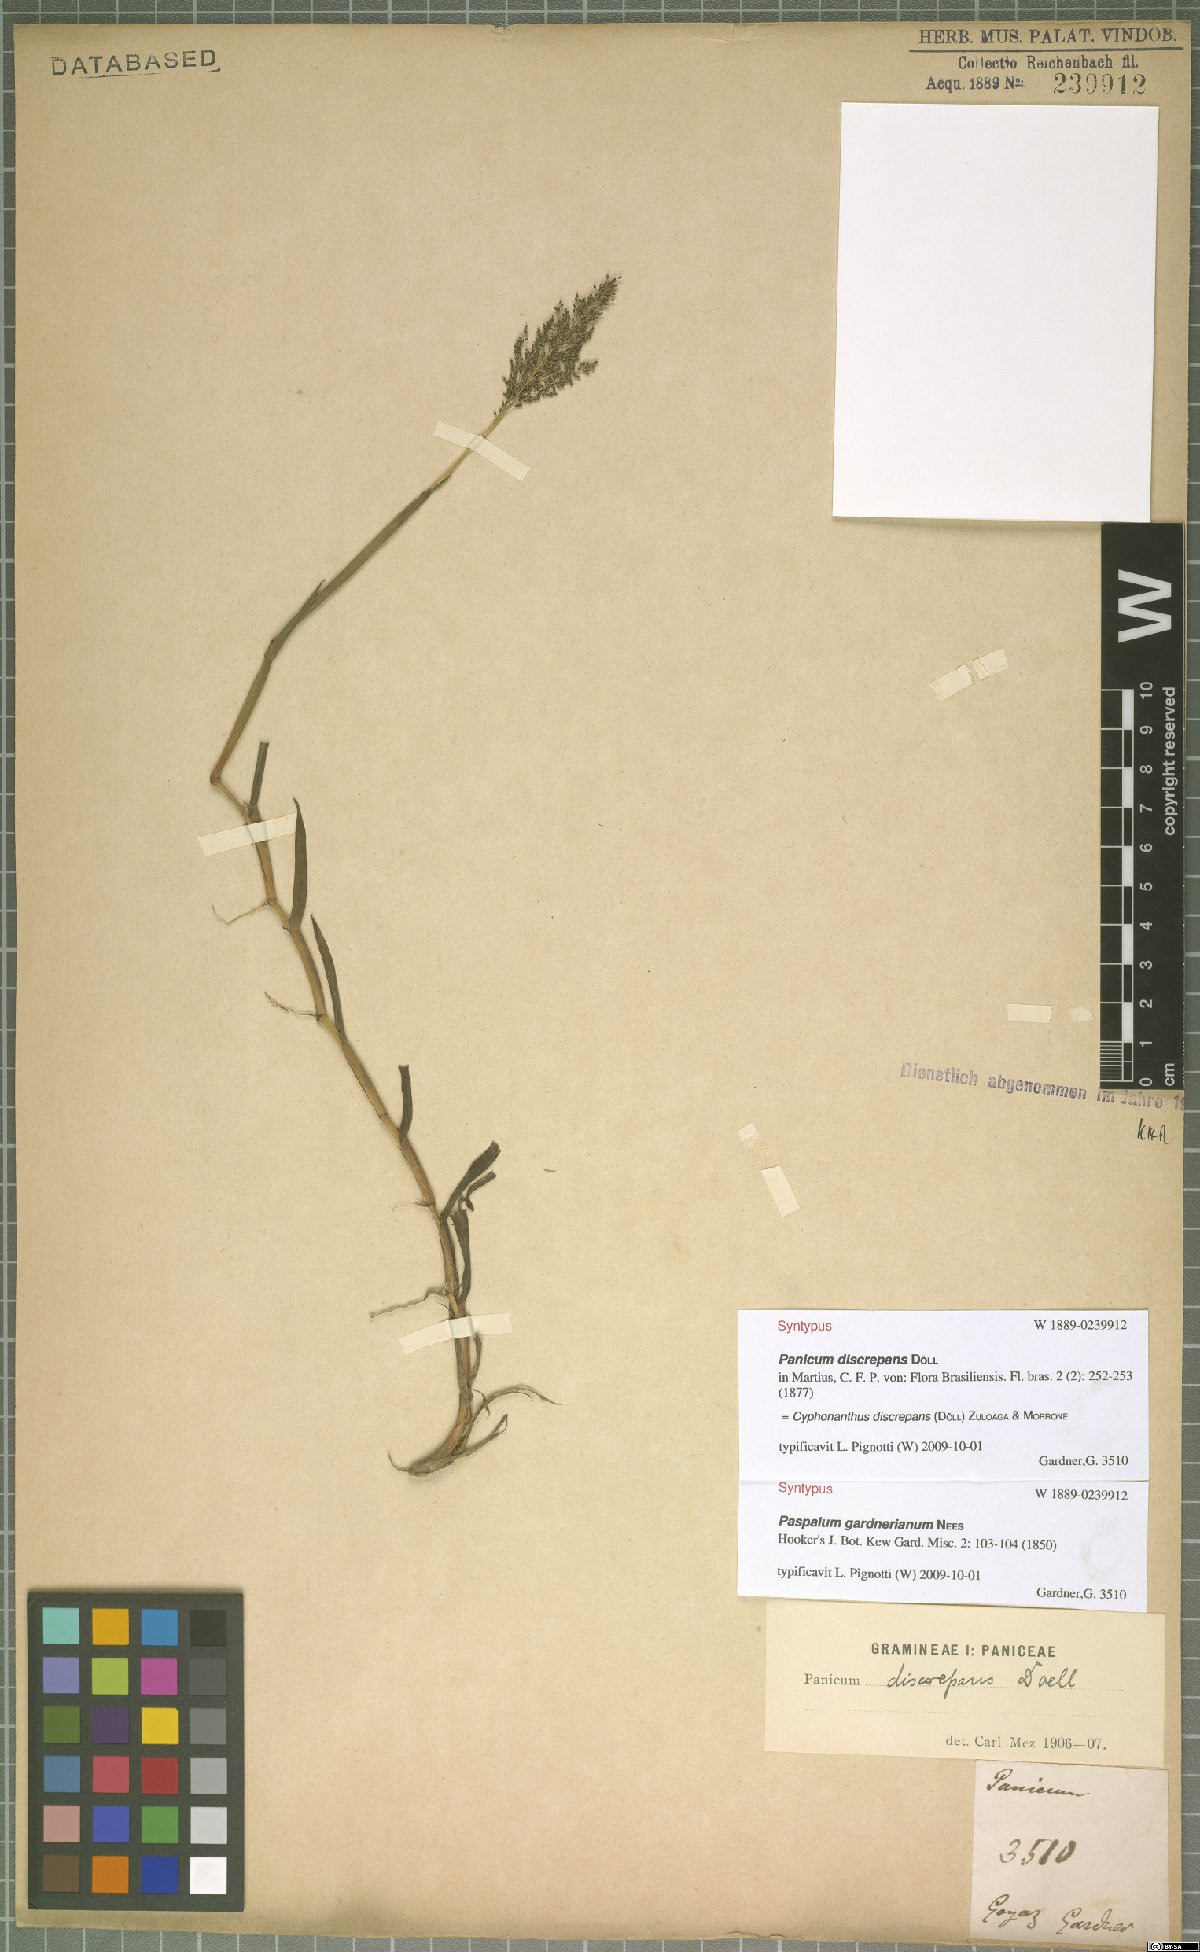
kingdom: Plantae
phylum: Tracheophyta
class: Liliopsida
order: Poales
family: Poaceae
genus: Cyphonanthus
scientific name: Cyphonanthus discrepans
